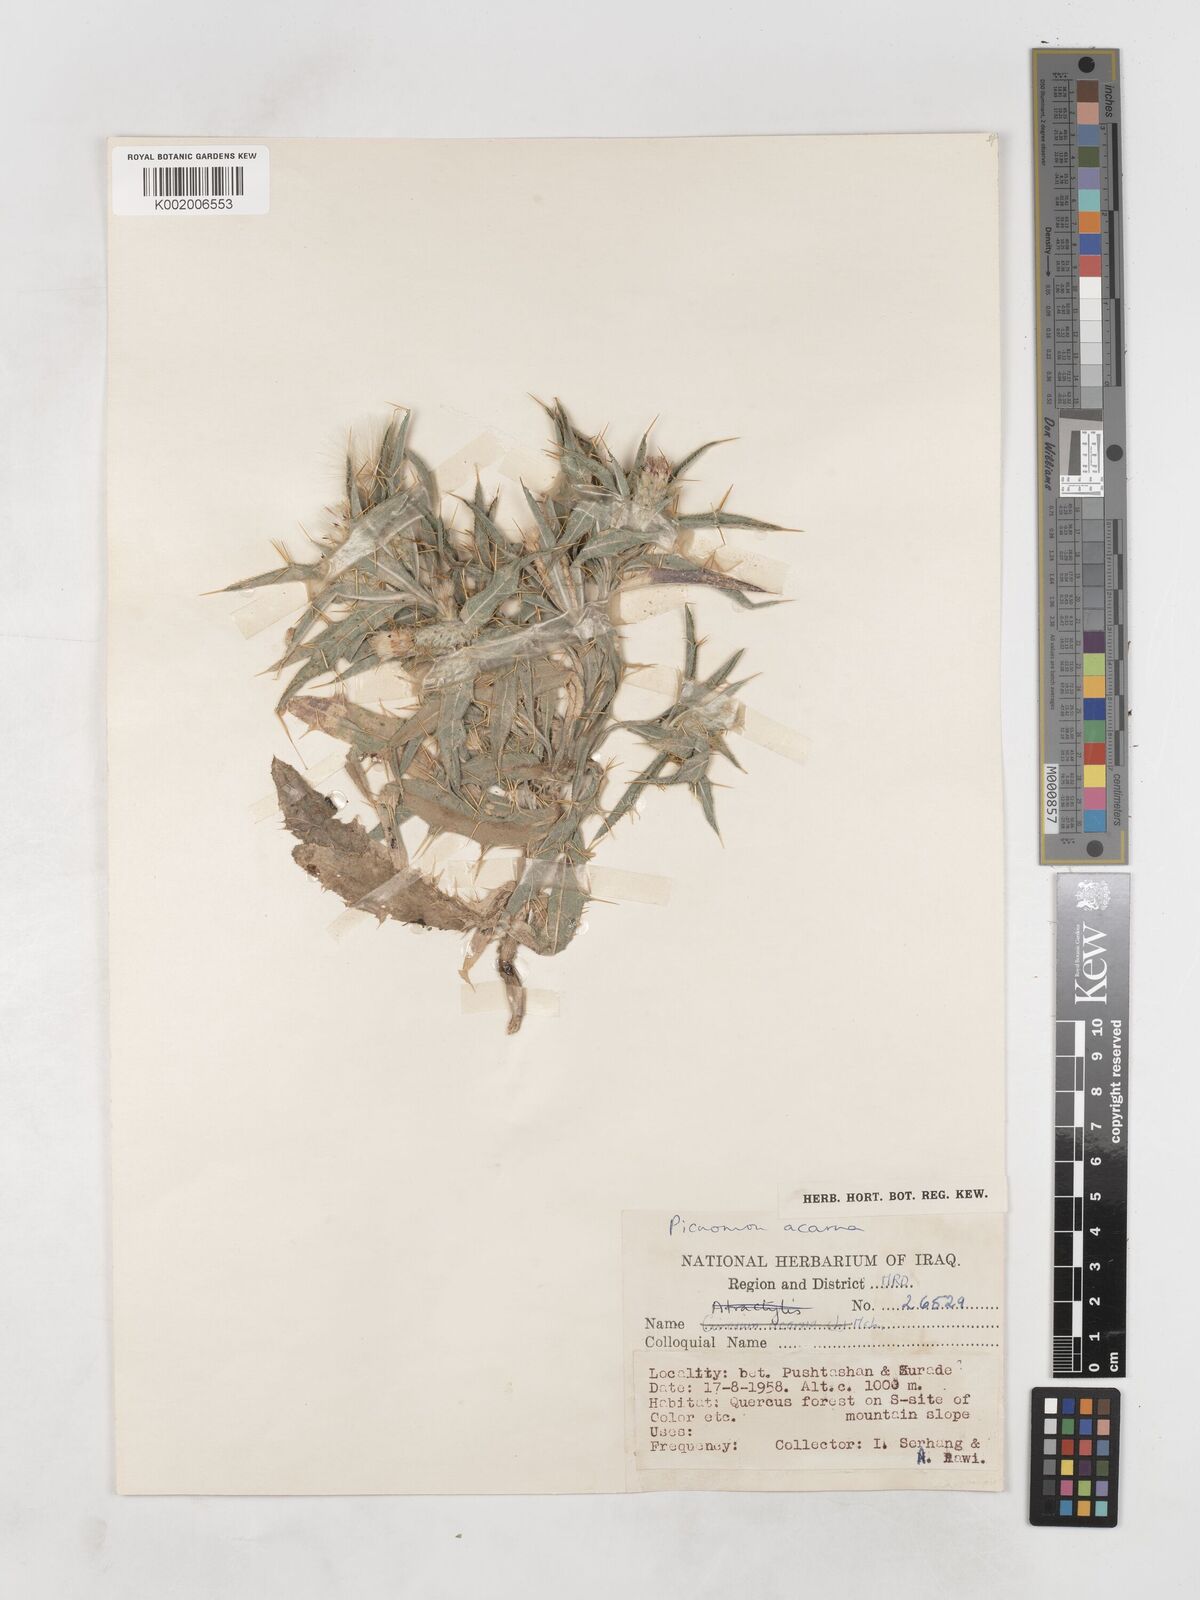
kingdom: Plantae
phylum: Tracheophyta
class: Magnoliopsida
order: Asterales
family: Asteraceae
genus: Picnomon
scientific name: Picnomon acarna
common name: Soldier thistle
